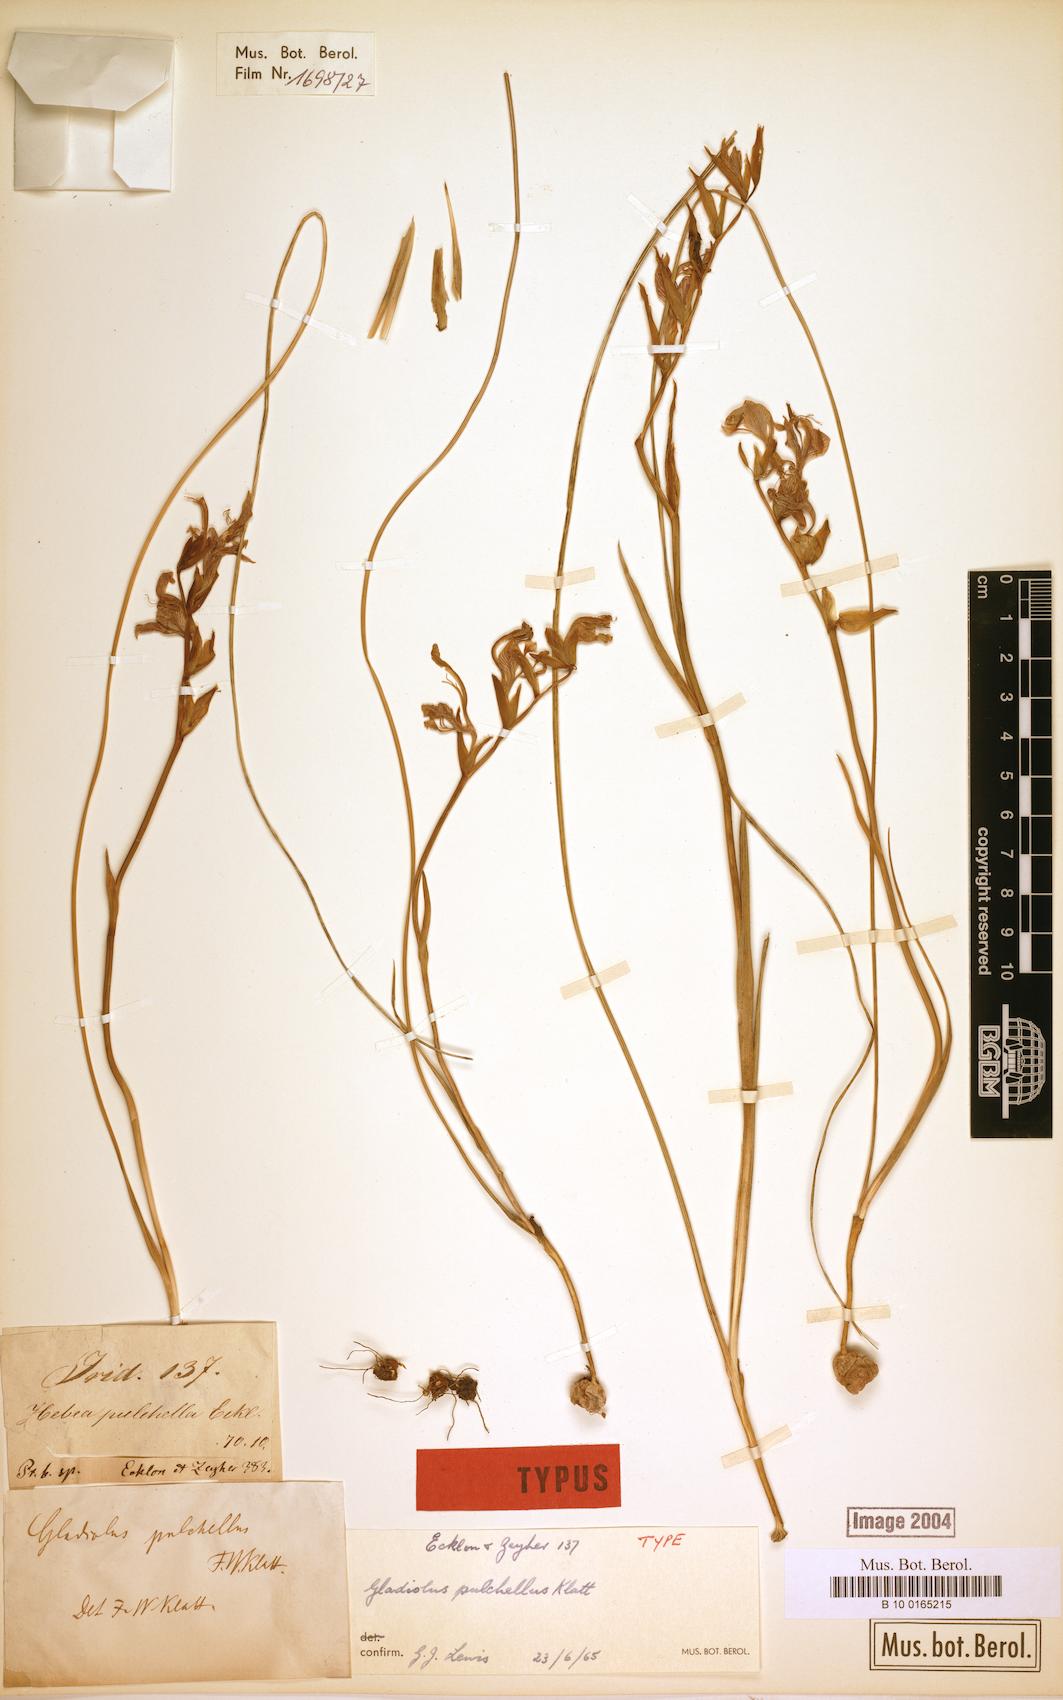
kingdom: Plantae
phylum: Tracheophyta
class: Liliopsida
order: Asparagales
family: Iridaceae
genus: Gladiolus
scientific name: Gladiolus virescens
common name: Yellow kalkoentjie
